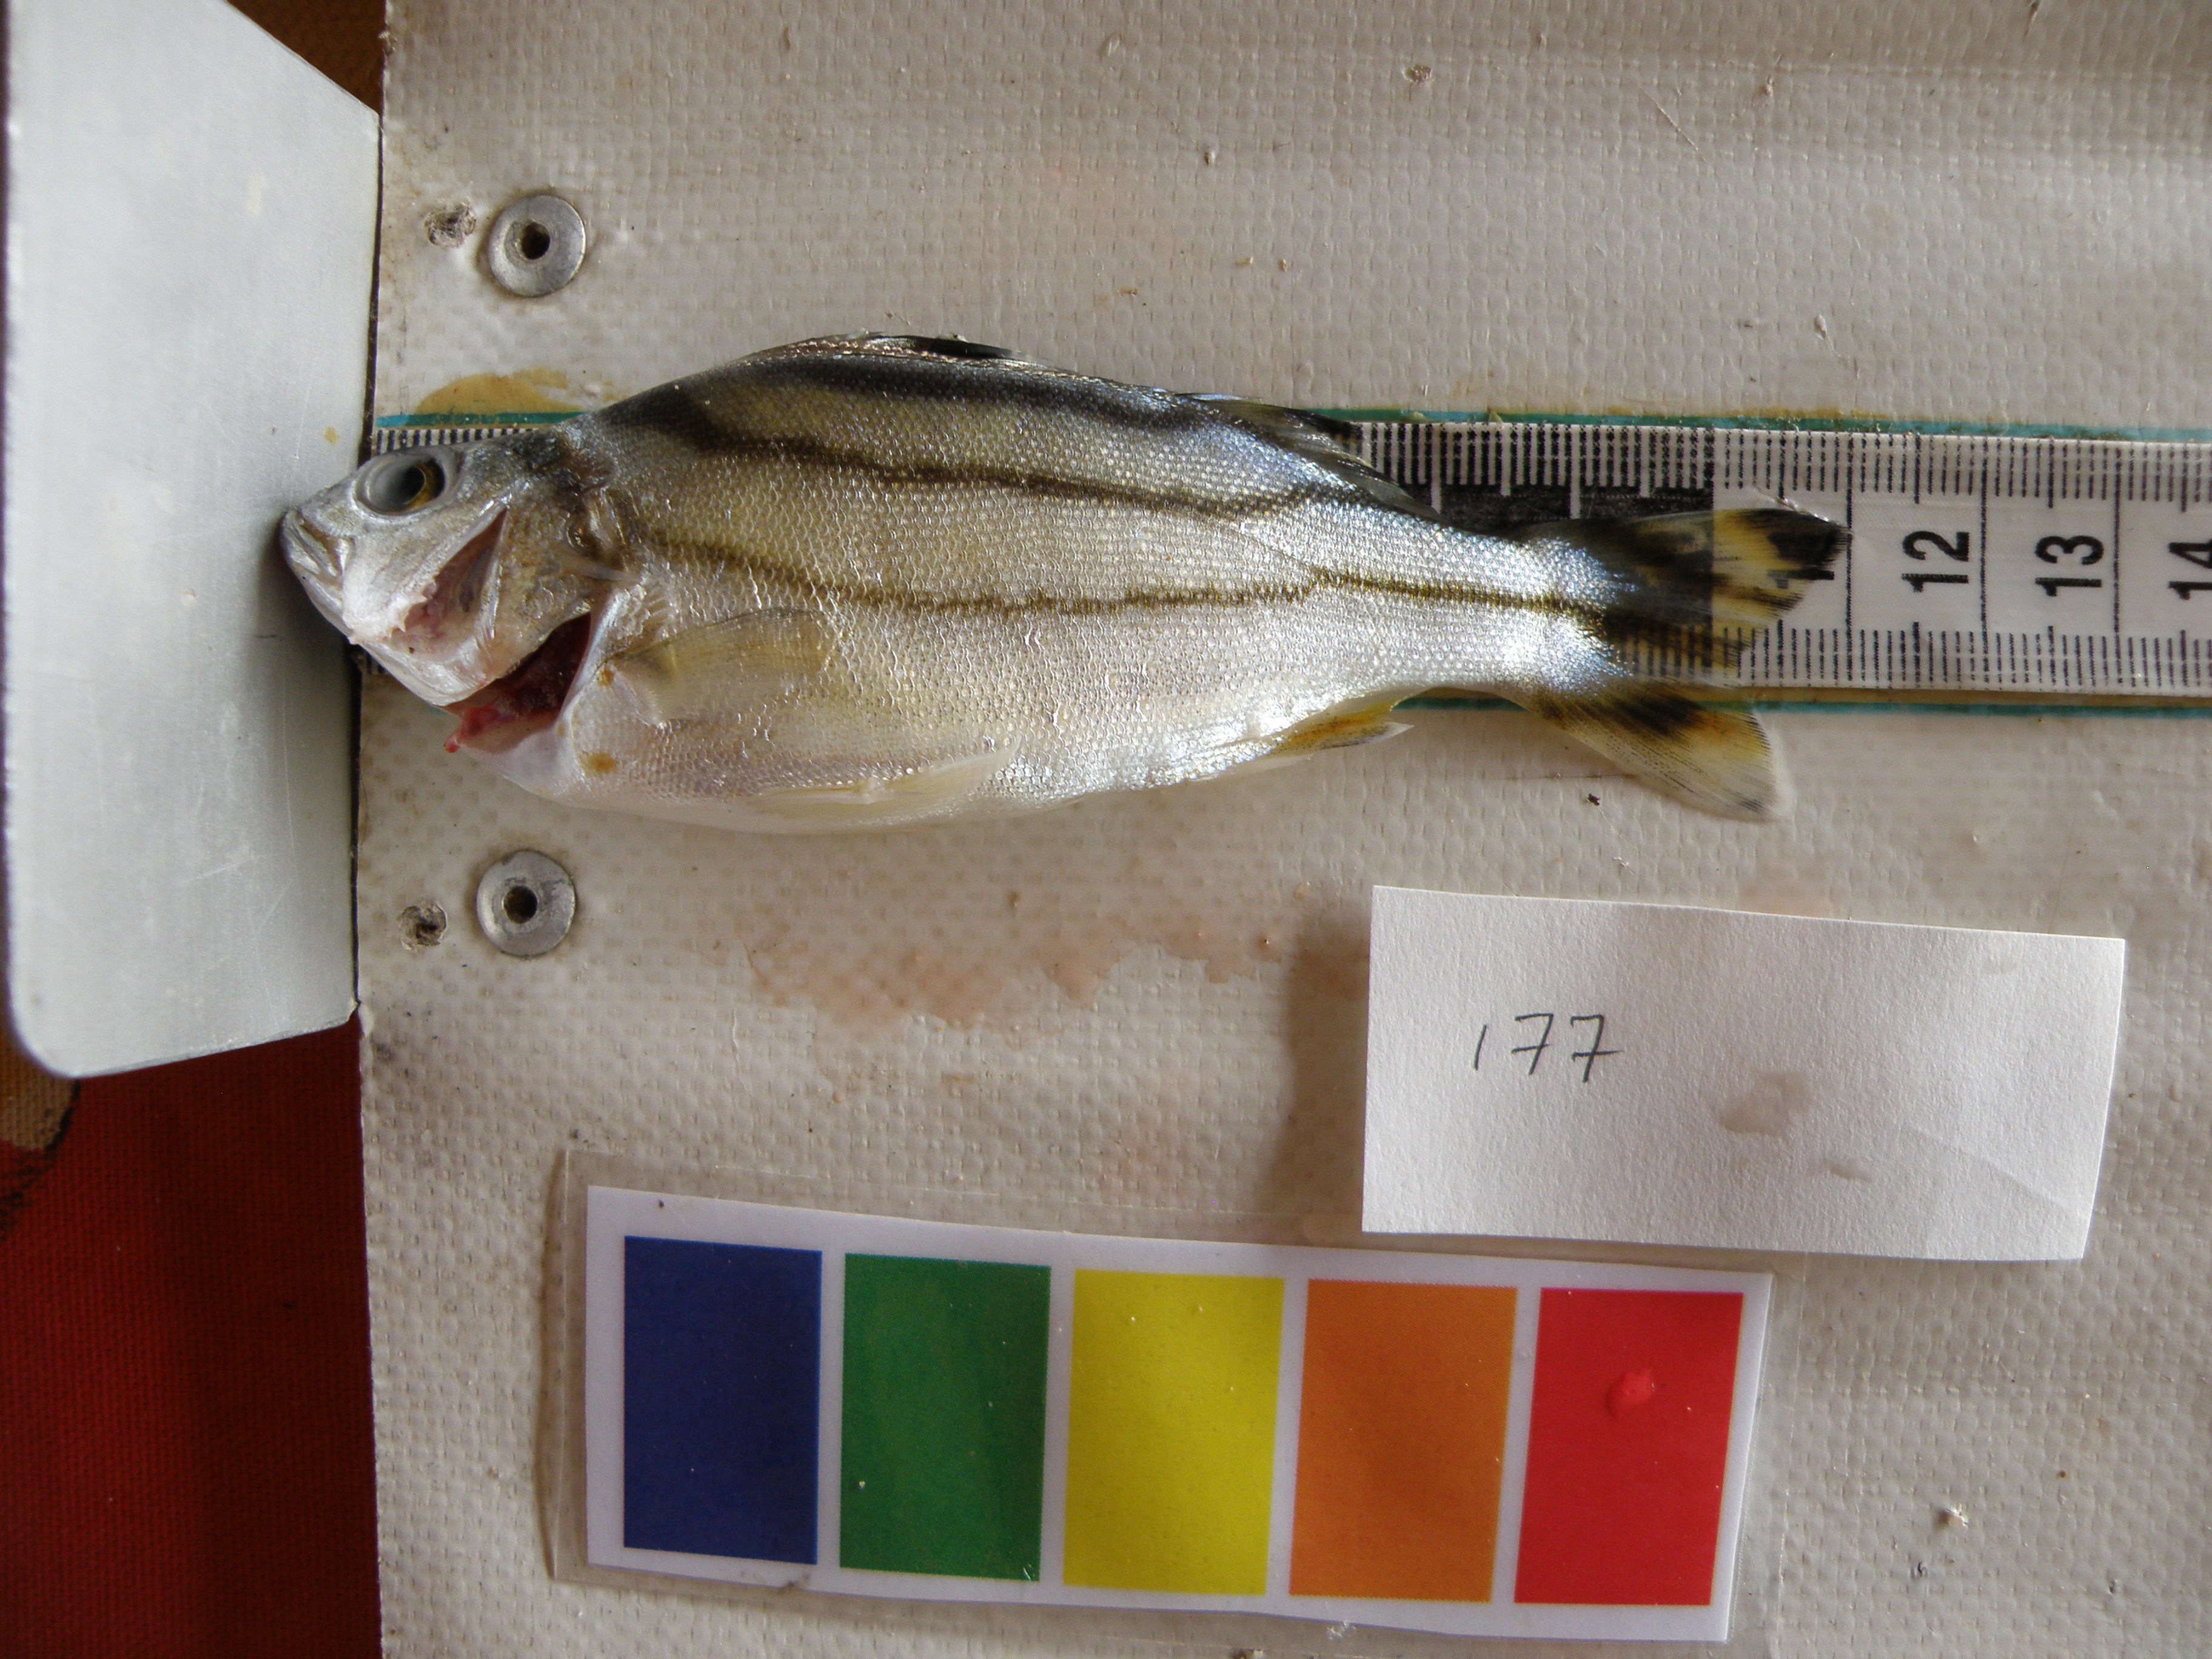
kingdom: Animalia
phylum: Chordata
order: Perciformes
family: Terapontidae
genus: Terapon
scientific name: Terapon jarbua
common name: Jarbua terapon
